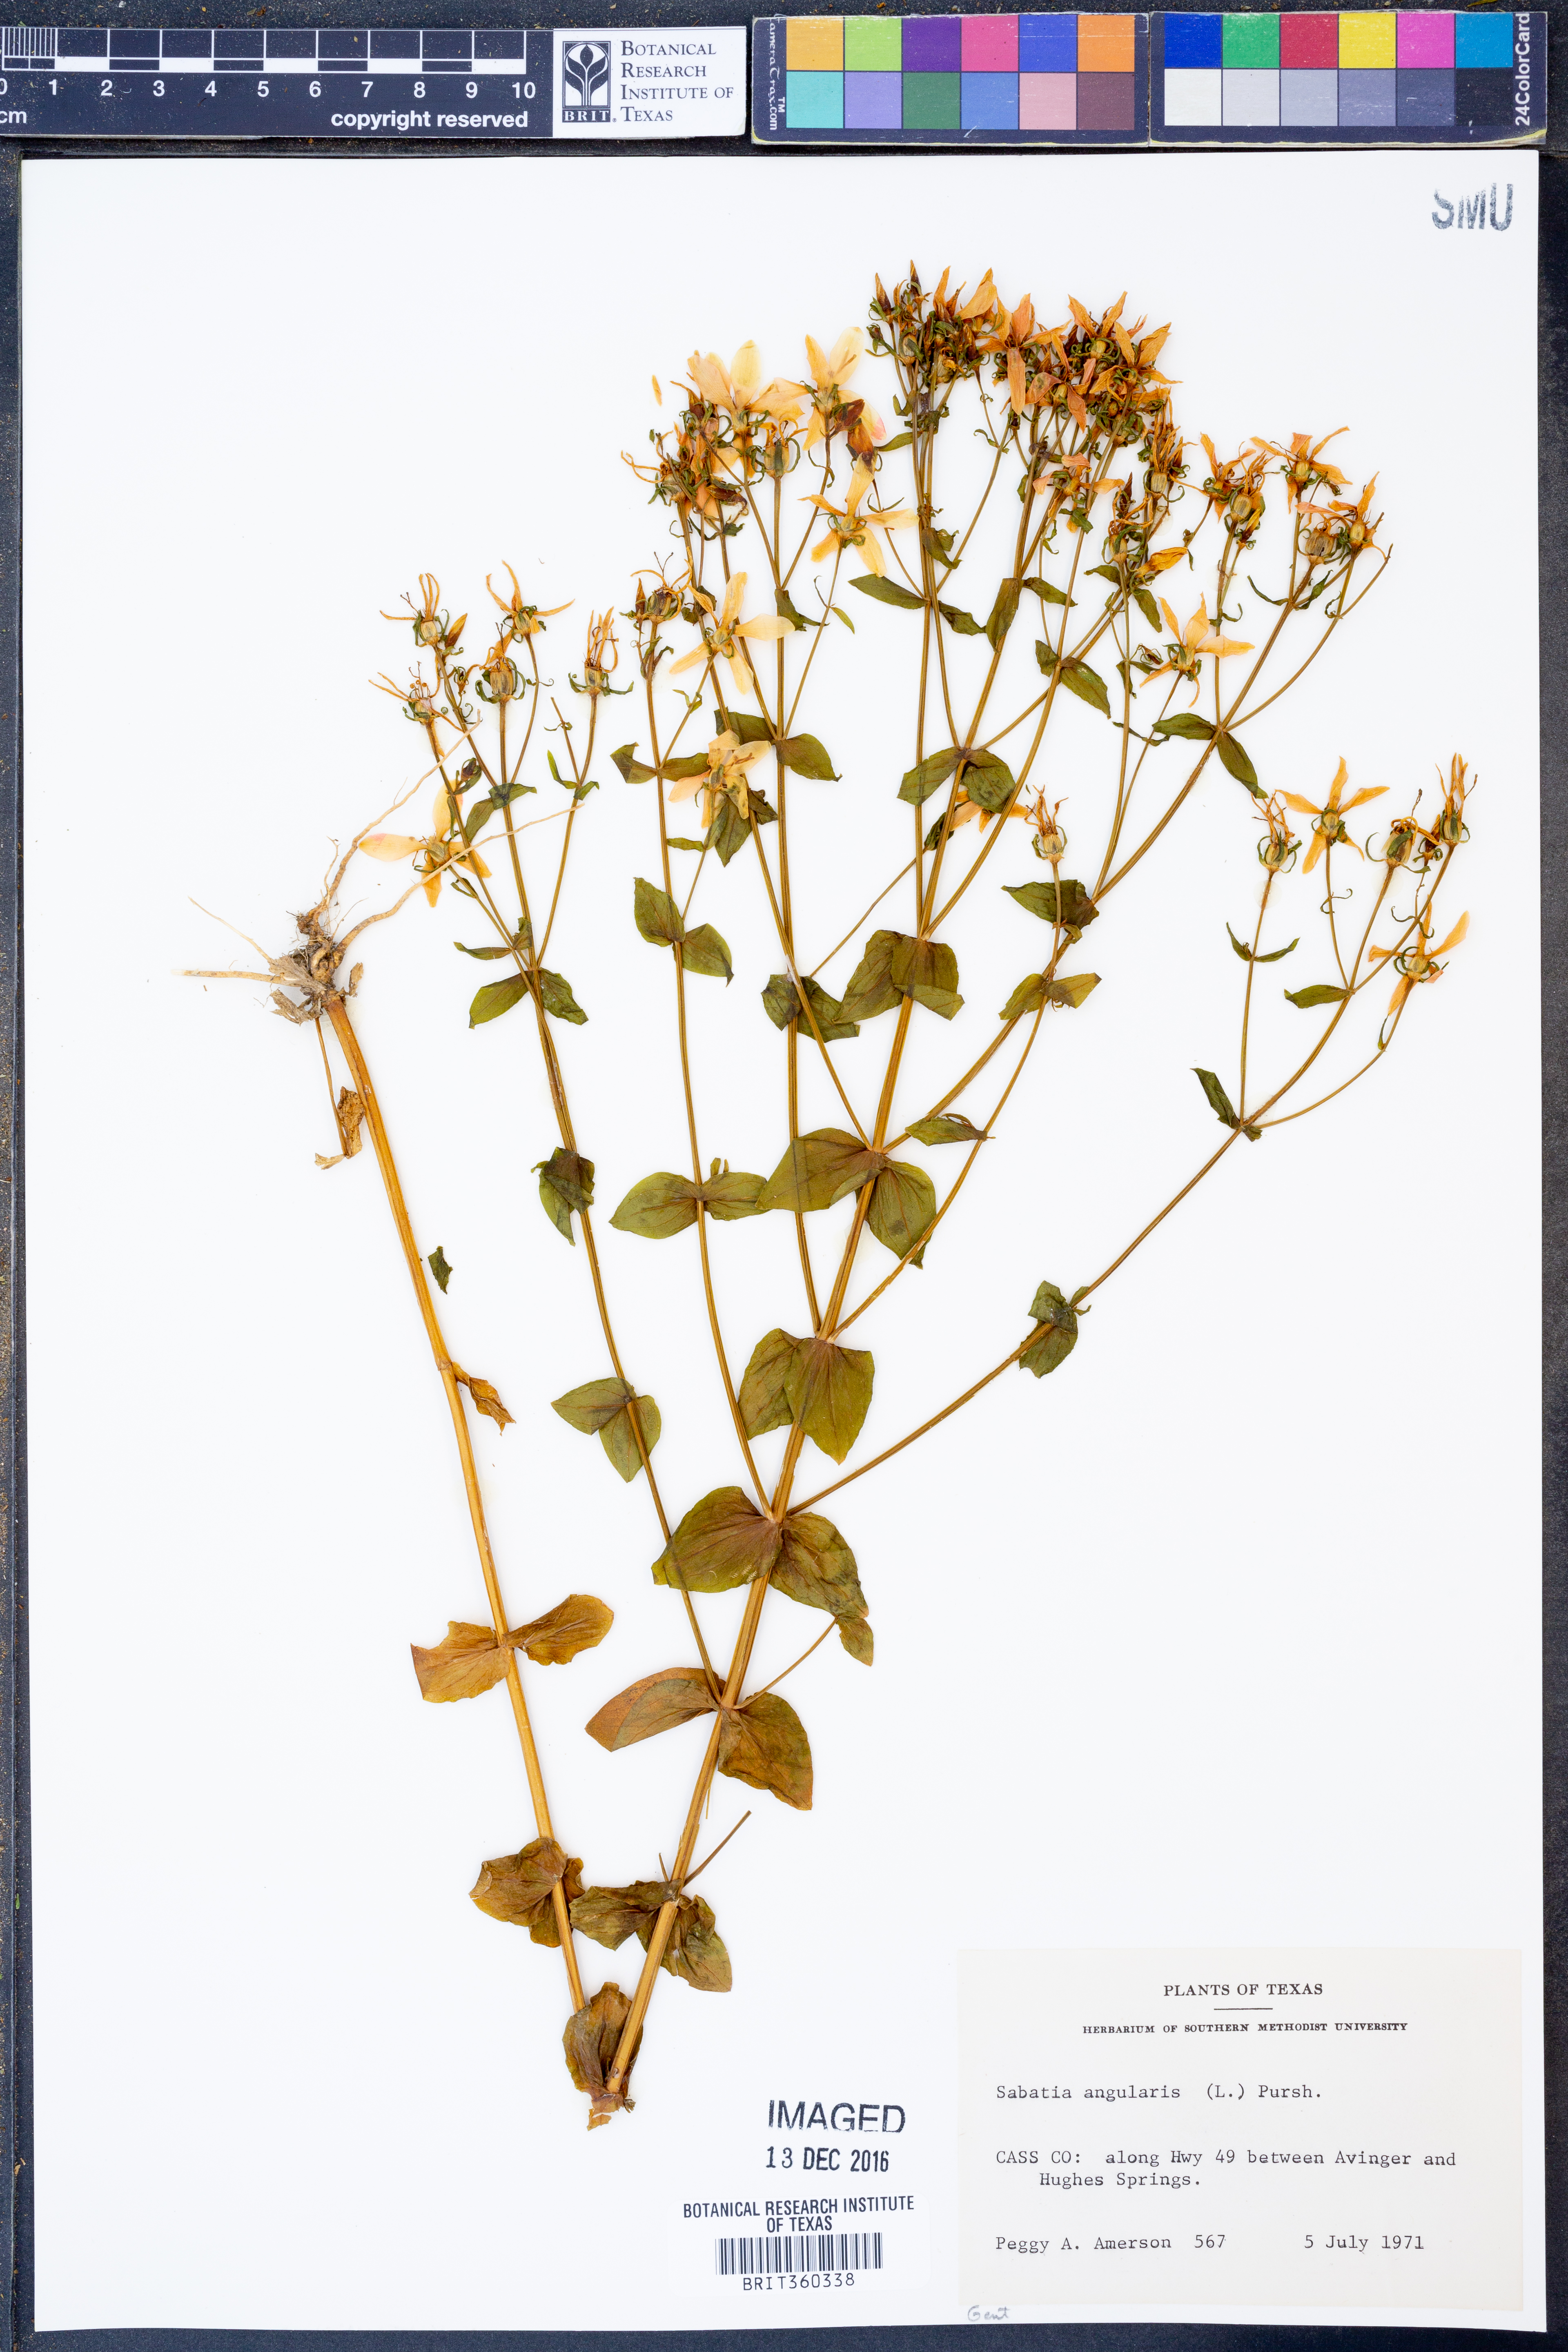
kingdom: Plantae
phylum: Tracheophyta
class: Magnoliopsida
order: Gentianales
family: Gentianaceae
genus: Sabatia
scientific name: Sabatia angularis
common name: Rose-pink
